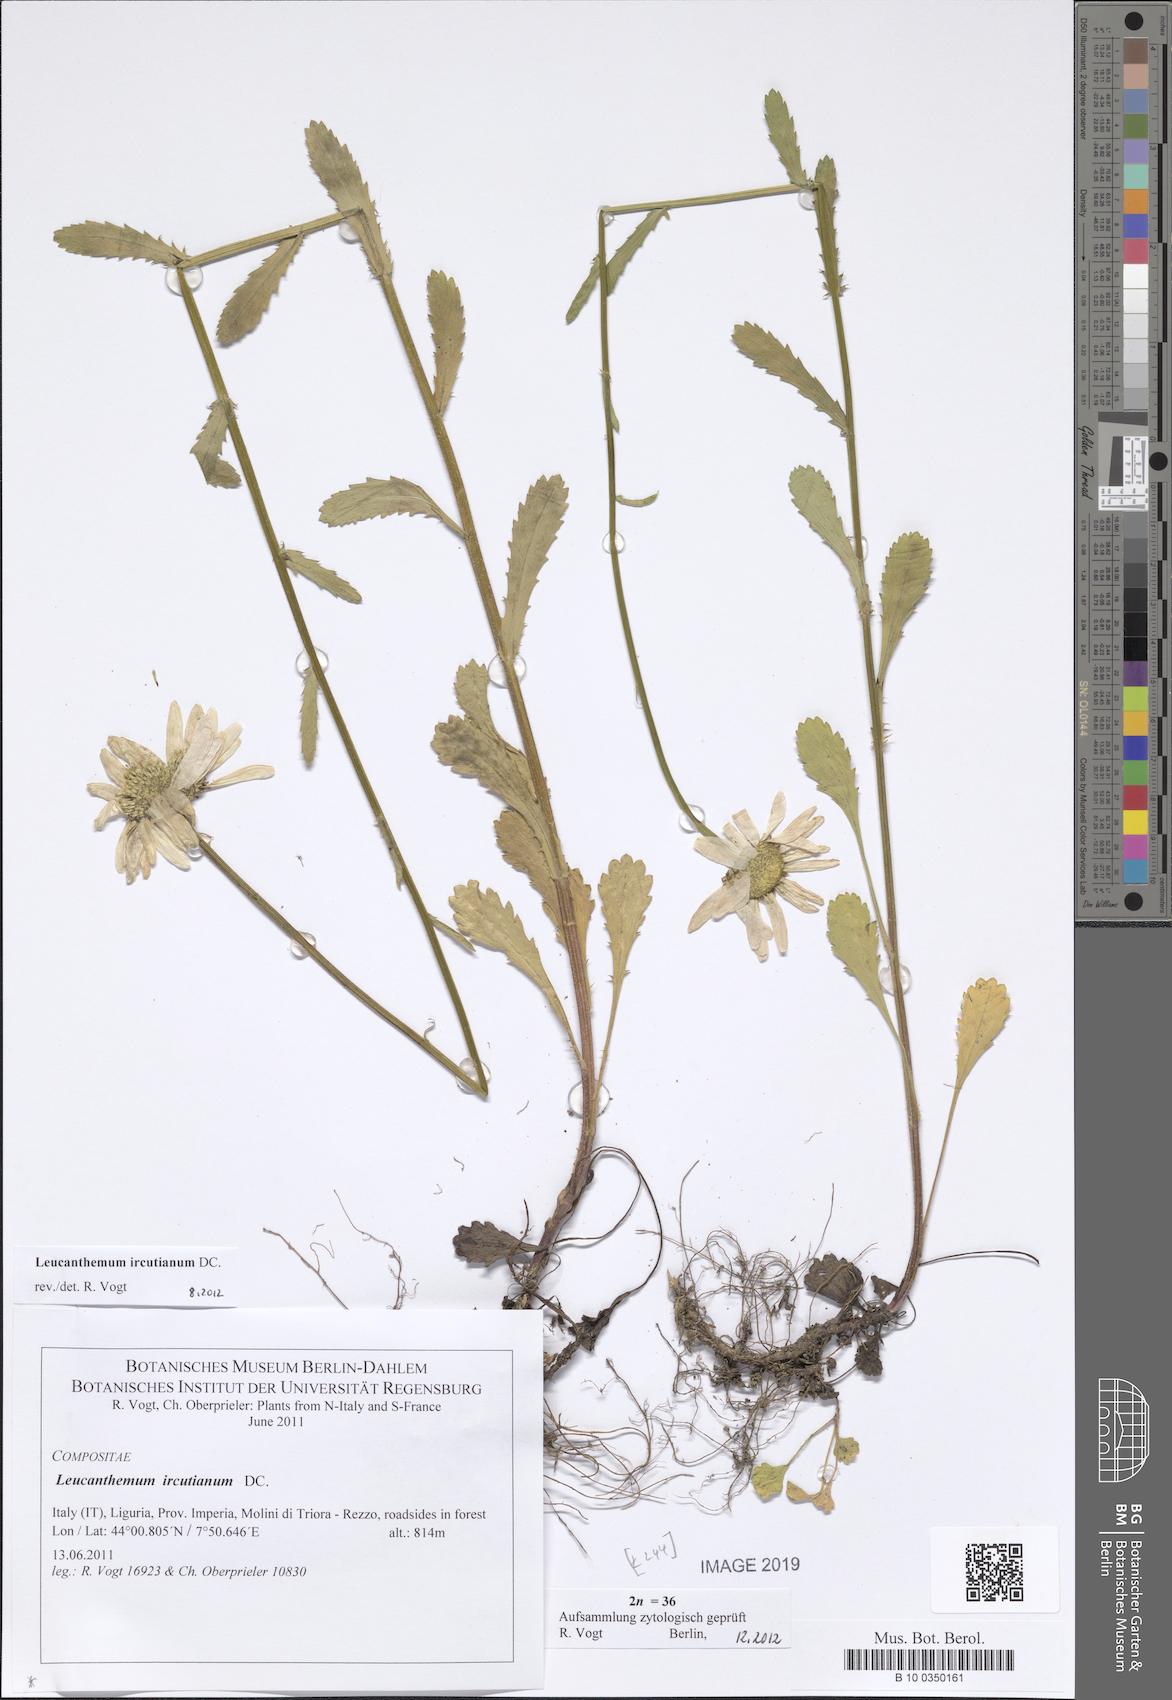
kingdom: Plantae
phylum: Tracheophyta
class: Magnoliopsida
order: Asterales
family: Asteraceae
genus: Leucanthemum
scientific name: Leucanthemum ircutianum
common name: Daisy
